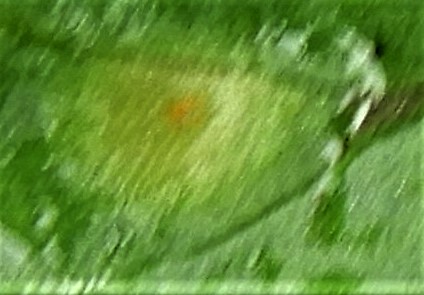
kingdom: Fungi
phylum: Basidiomycota
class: Pucciniomycetes
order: Pucciniales
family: Pucciniaceae
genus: Puccinia
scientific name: Puccinia sessilis
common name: Arum rust
